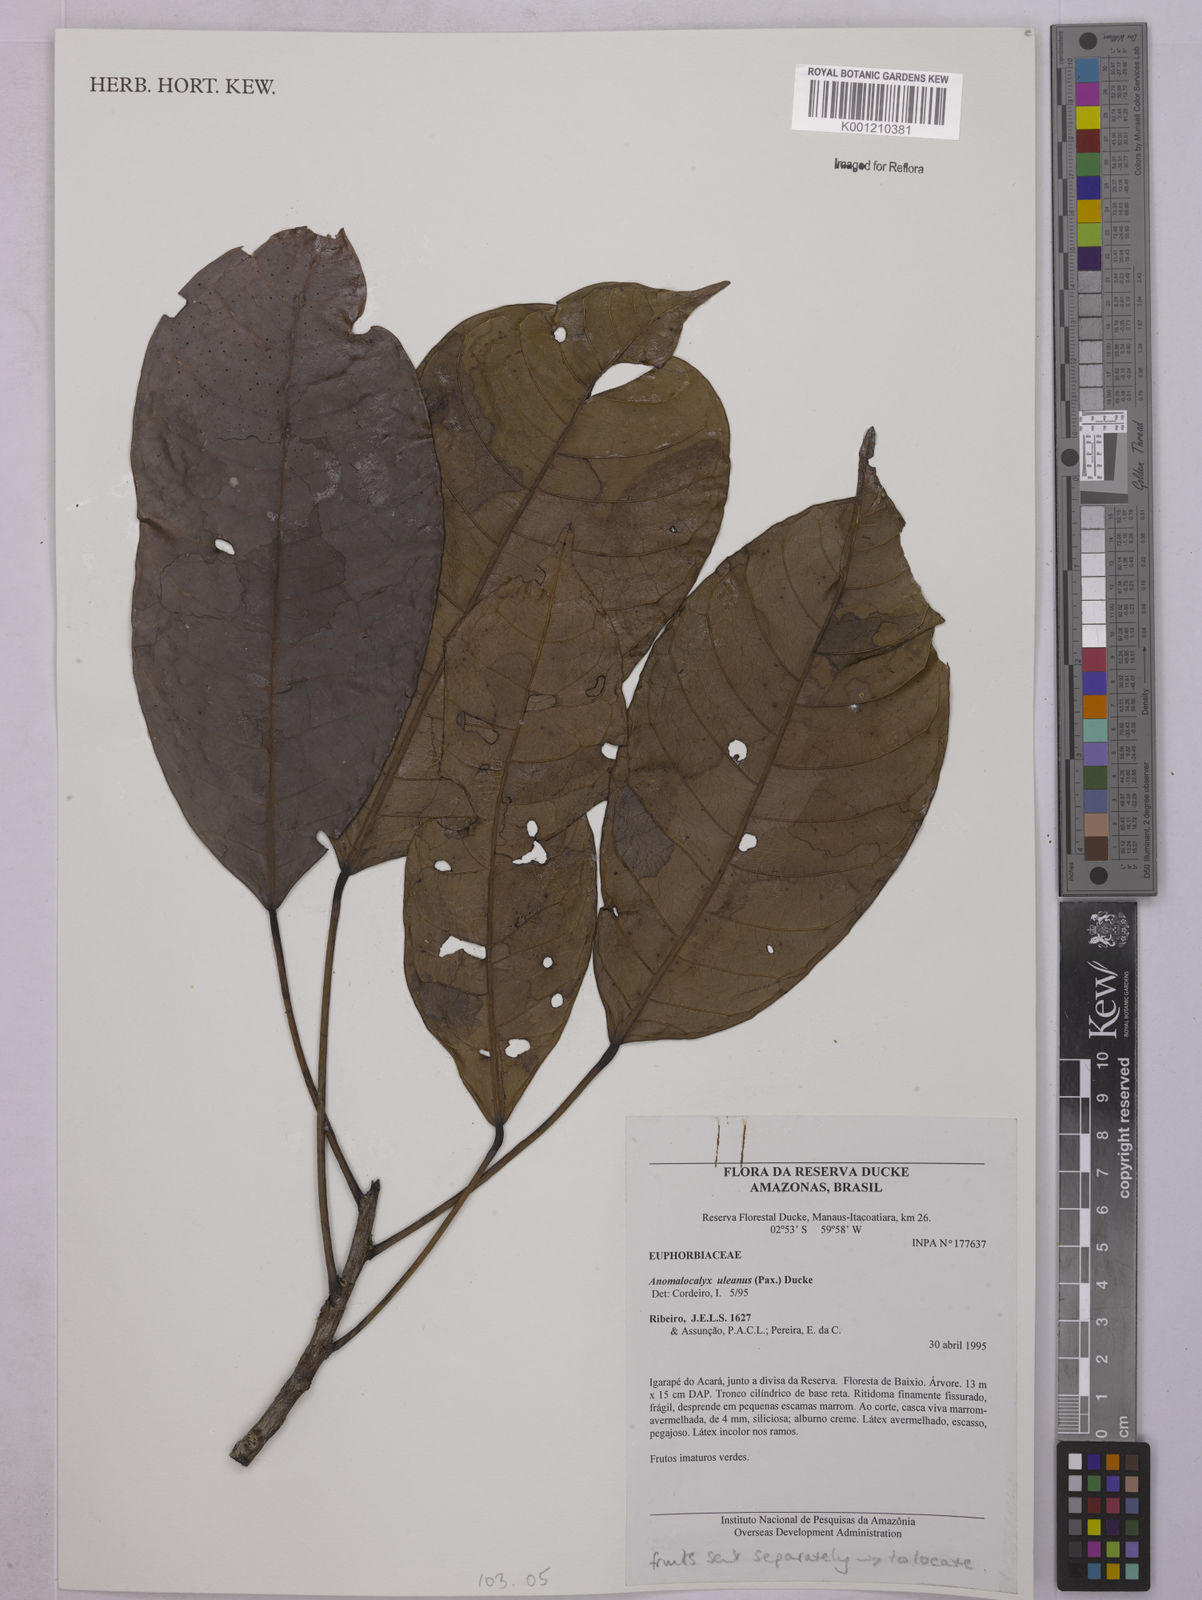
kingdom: Plantae
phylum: Tracheophyta
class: Magnoliopsida
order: Malpighiales
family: Euphorbiaceae
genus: Dodecastigma
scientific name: Dodecastigma uleanum
